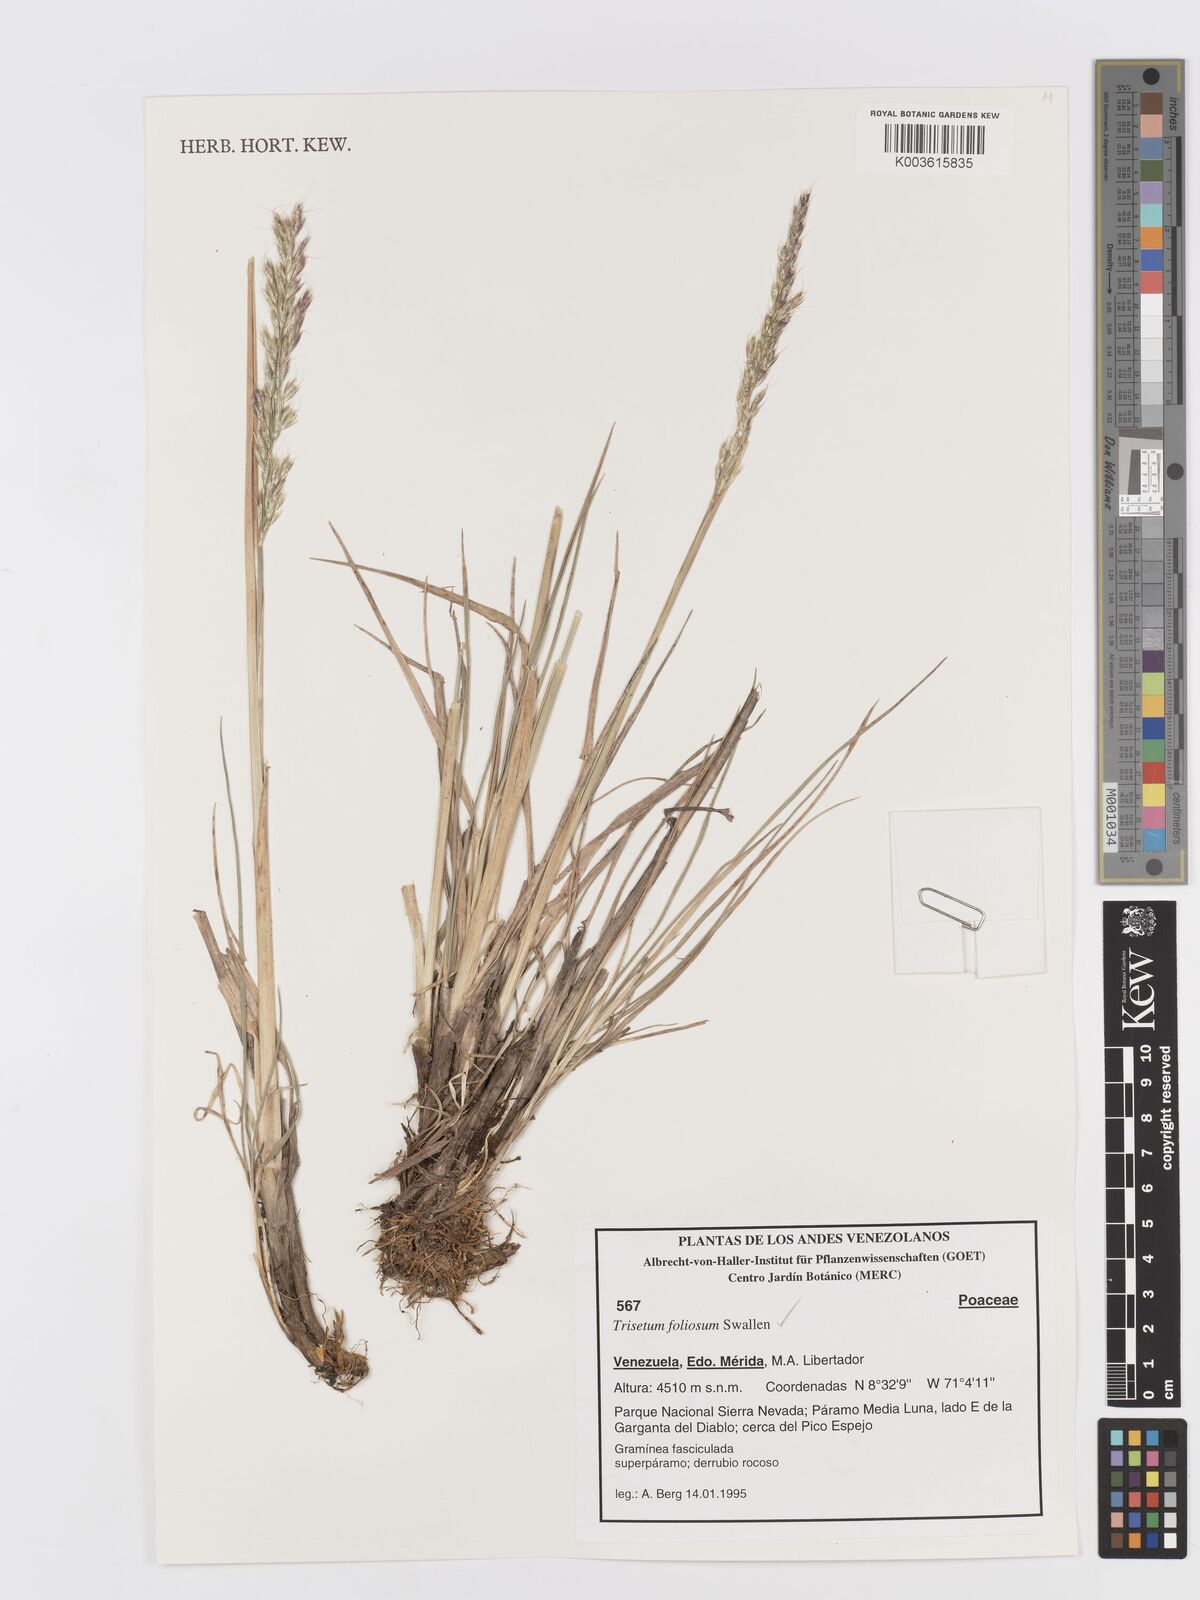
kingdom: Plantae
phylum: Tracheophyta
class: Liliopsida
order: Poales
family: Poaceae
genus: Peyritschia
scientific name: Peyritschia foliosa
